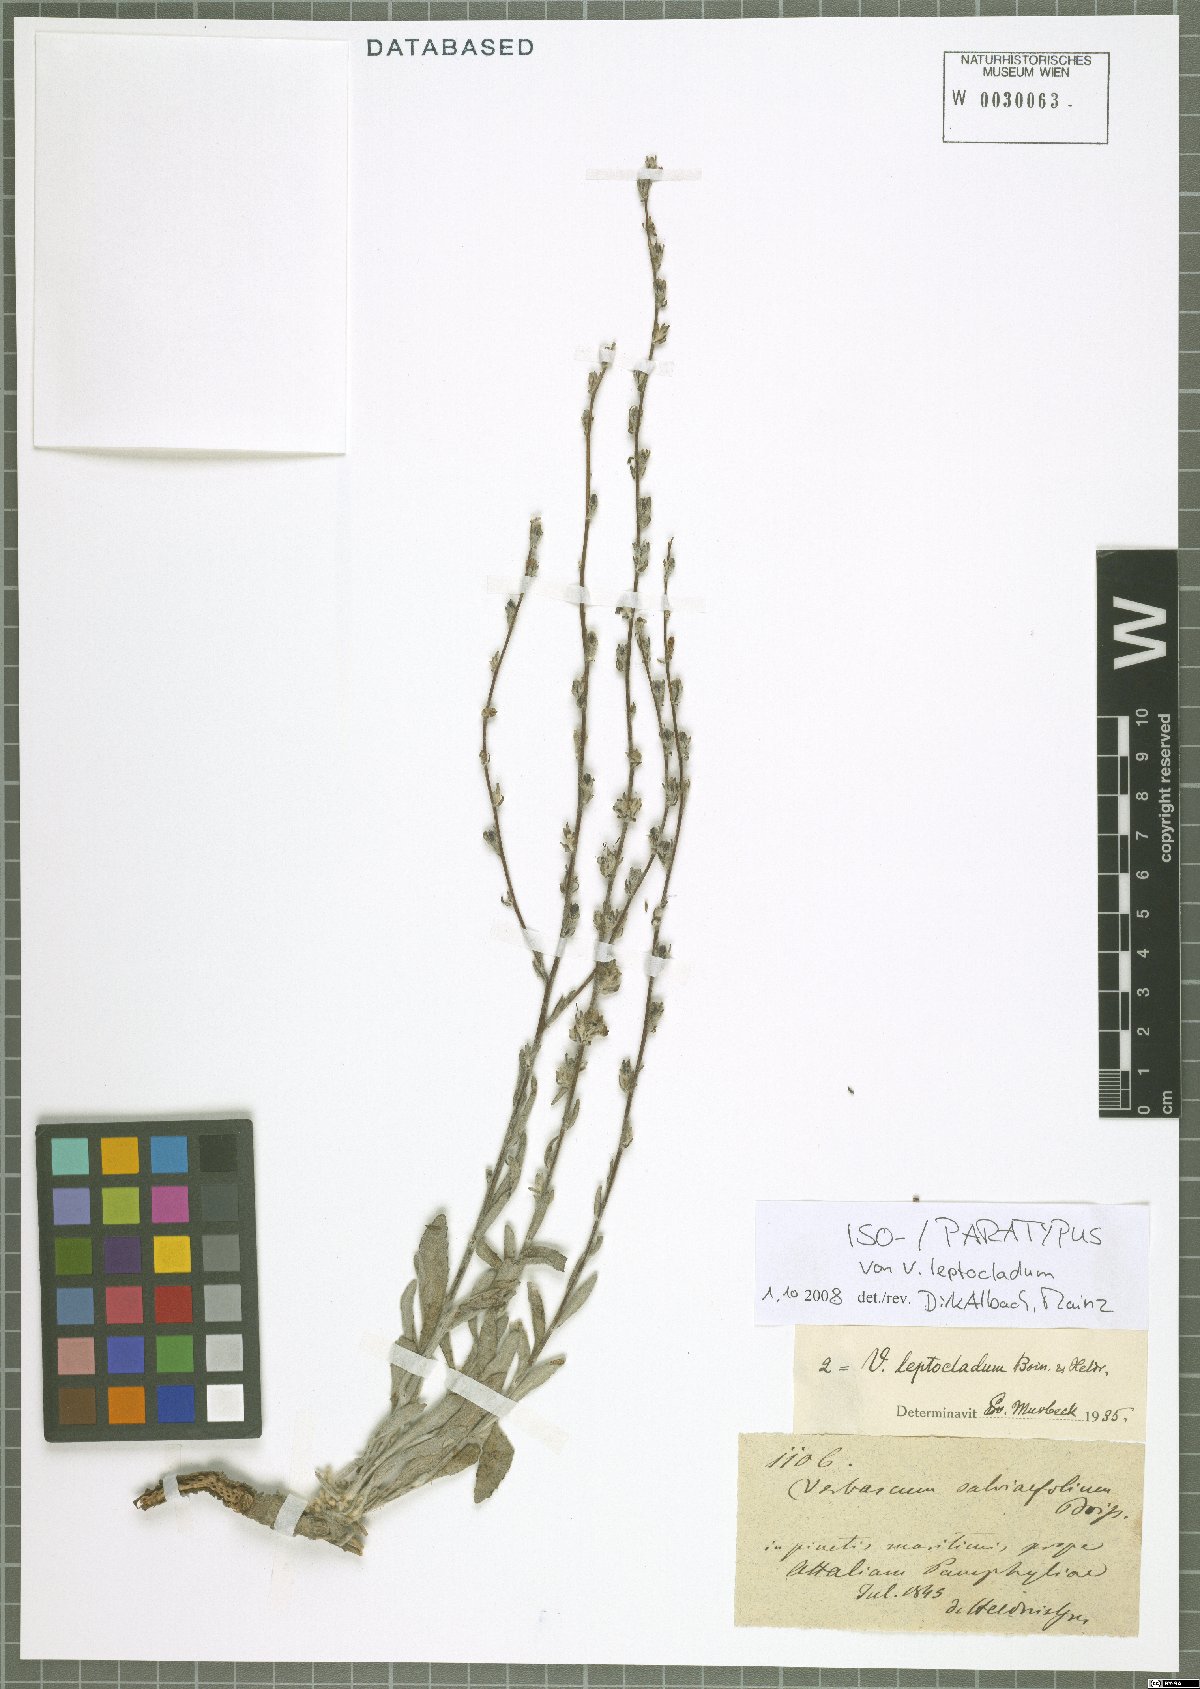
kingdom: Plantae
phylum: Tracheophyta
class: Magnoliopsida
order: Lamiales
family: Scrophulariaceae
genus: Verbascum
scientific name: Verbascum leptocladum
